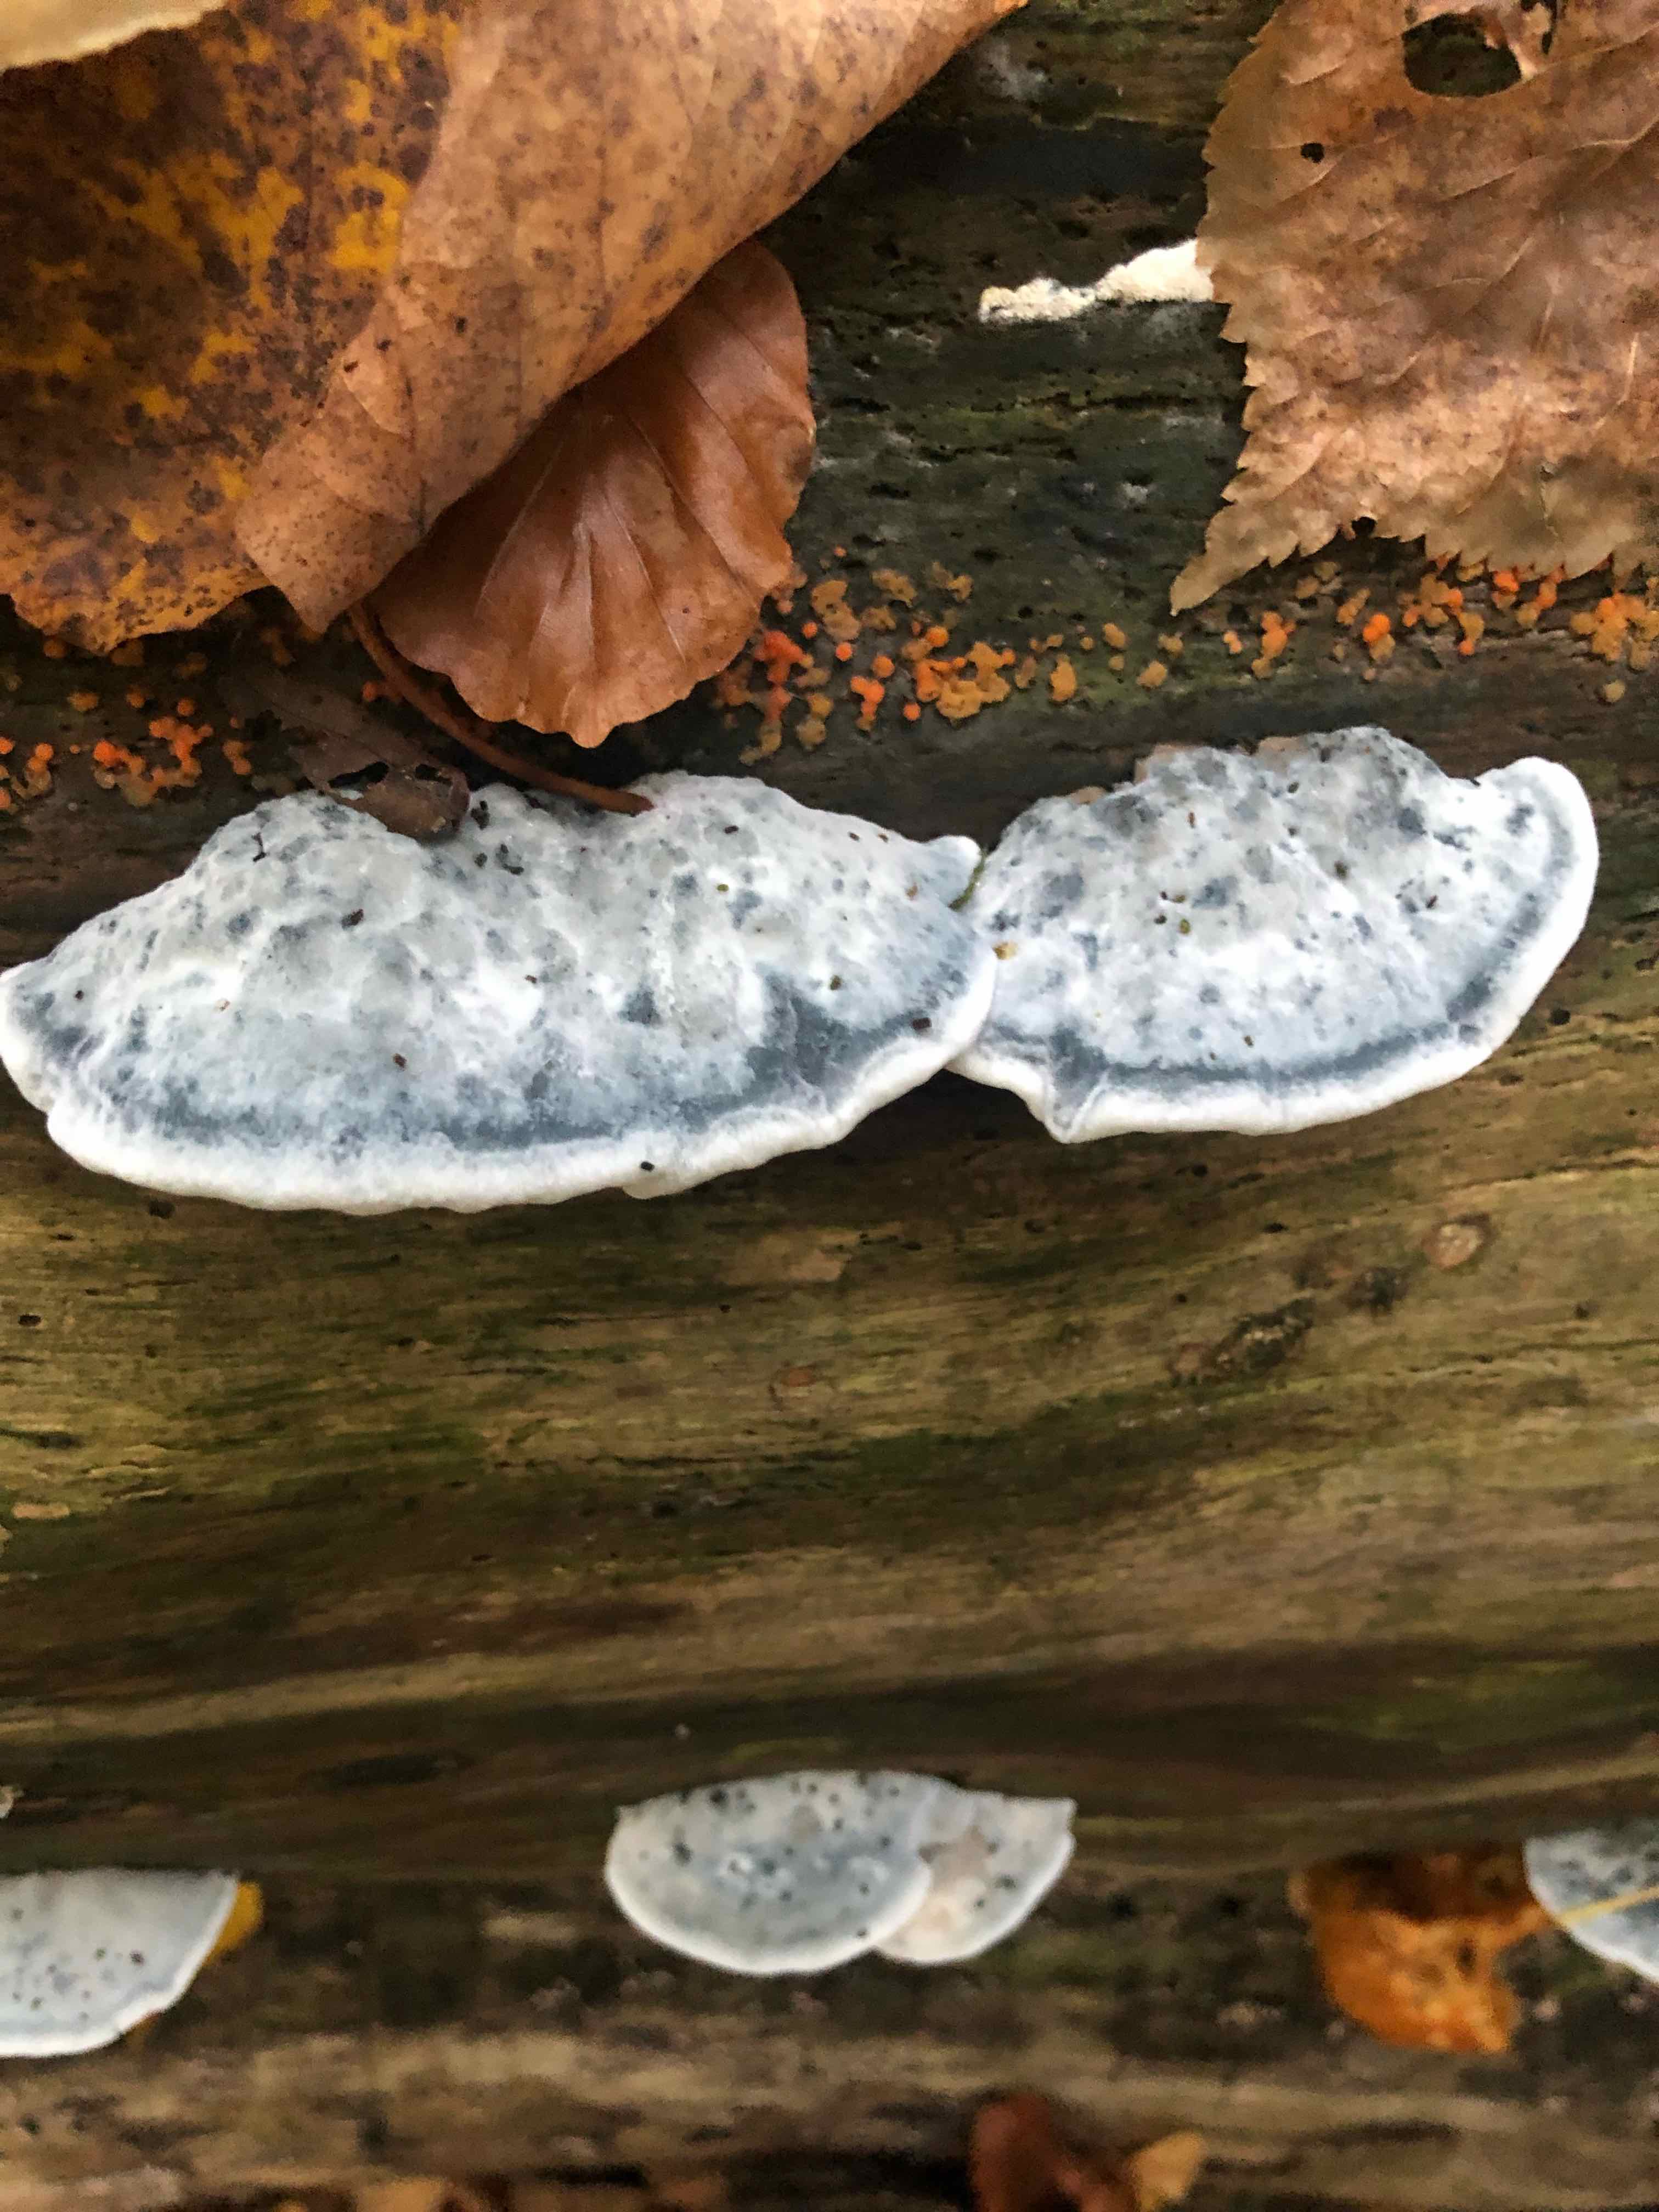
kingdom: Fungi
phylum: Basidiomycota
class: Agaricomycetes
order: Polyporales
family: Polyporaceae
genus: Cyanosporus
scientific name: Cyanosporus caesius
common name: blålig kødporesvamp
